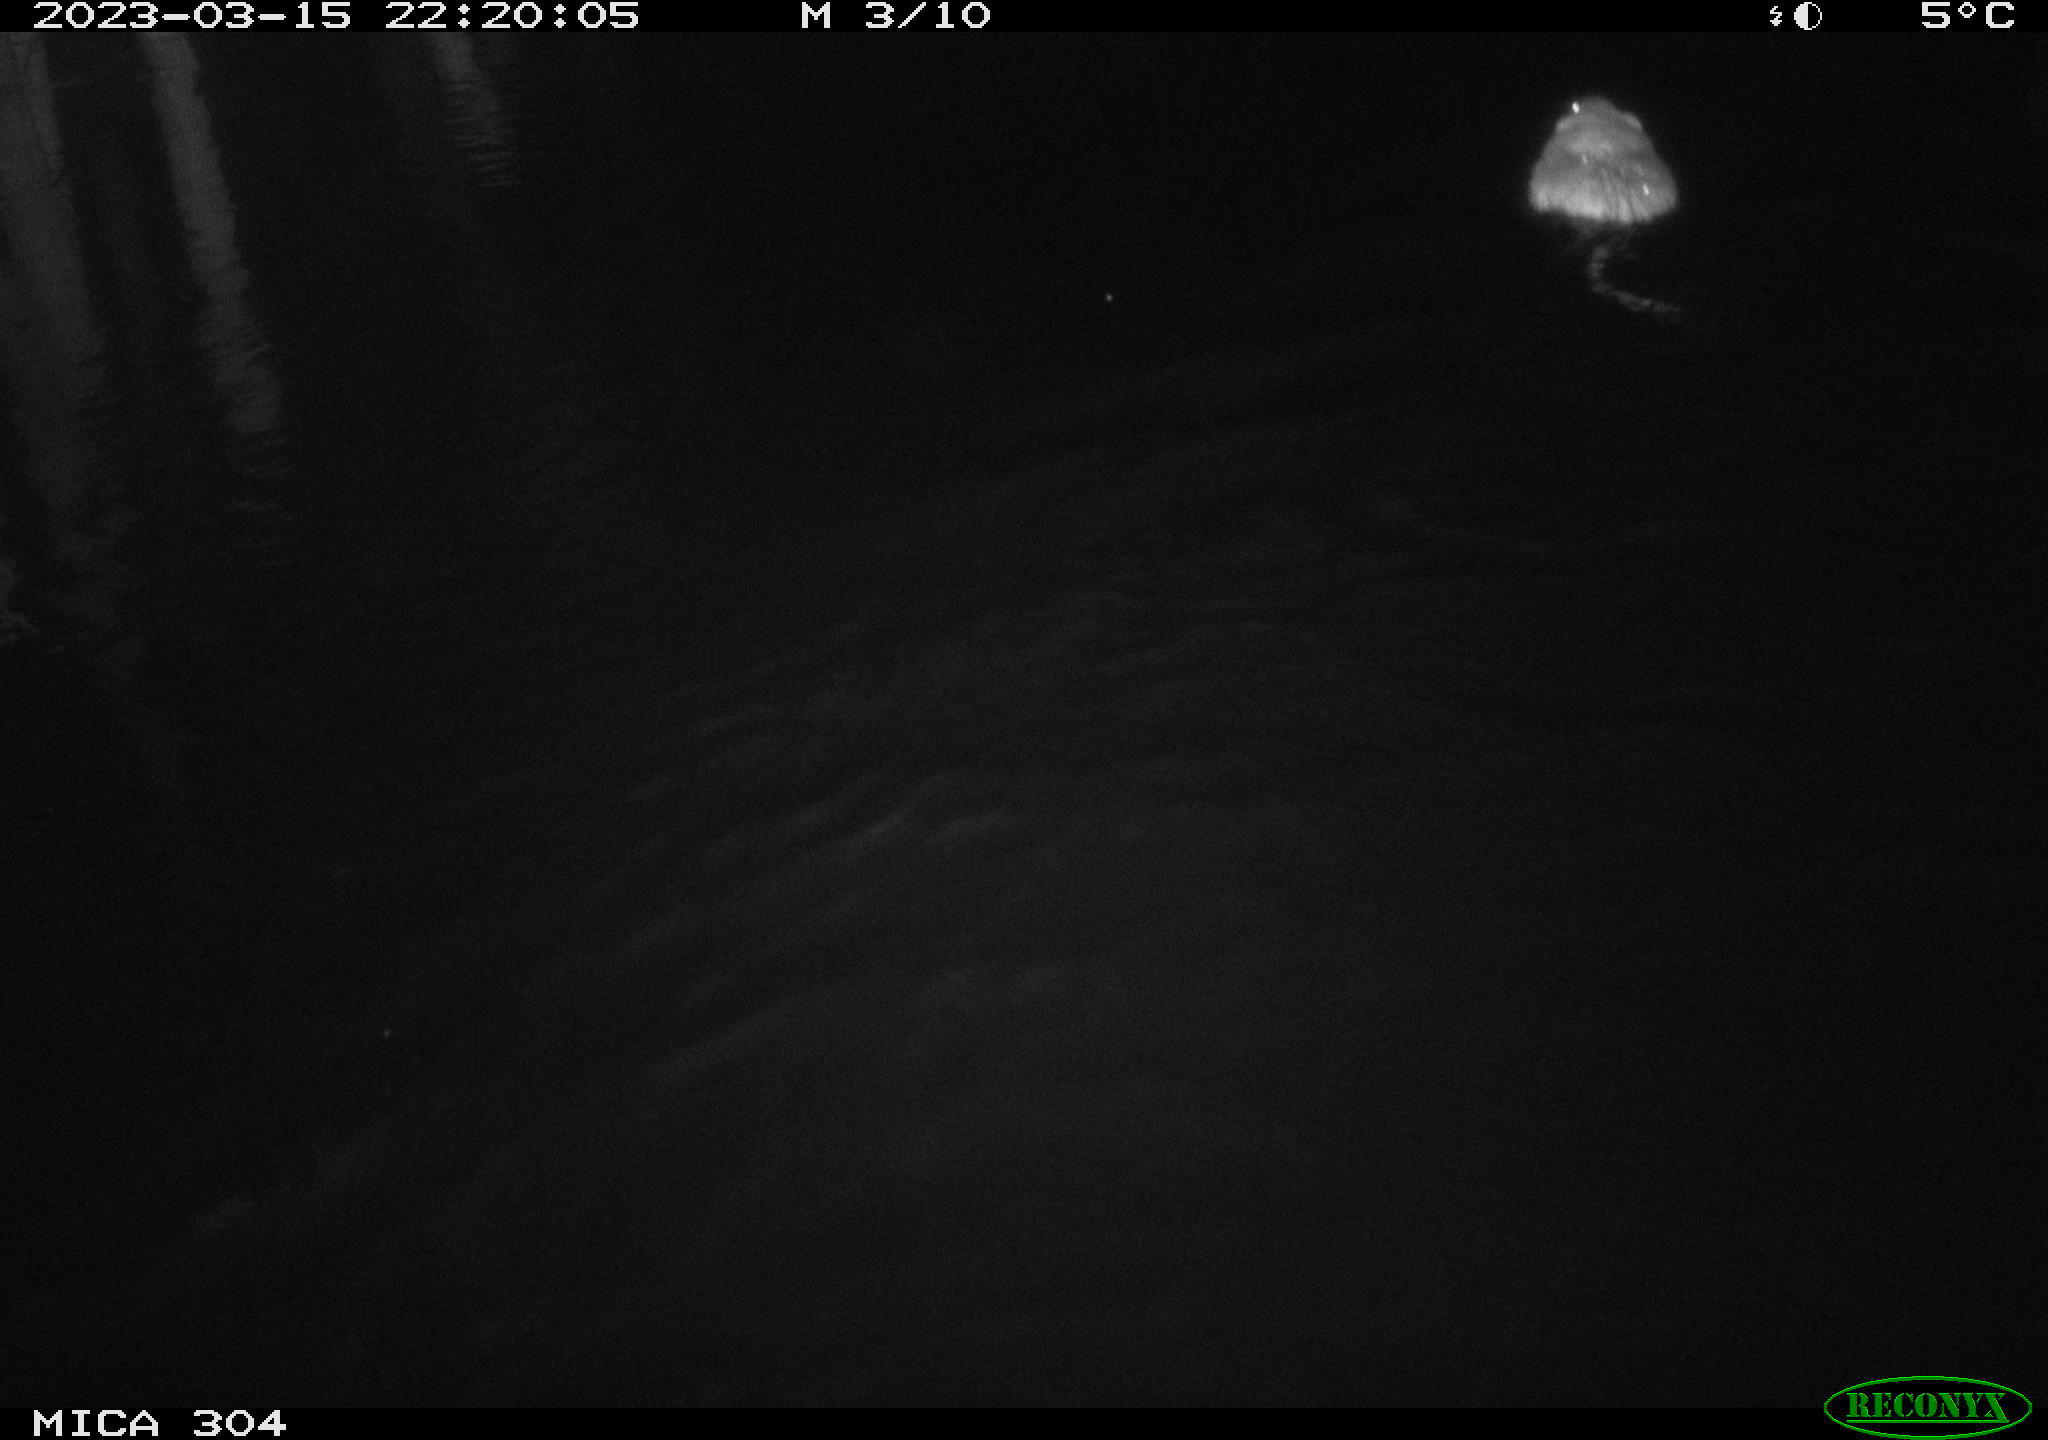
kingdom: Animalia
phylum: Chordata
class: Mammalia
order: Rodentia
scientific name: Rodentia
